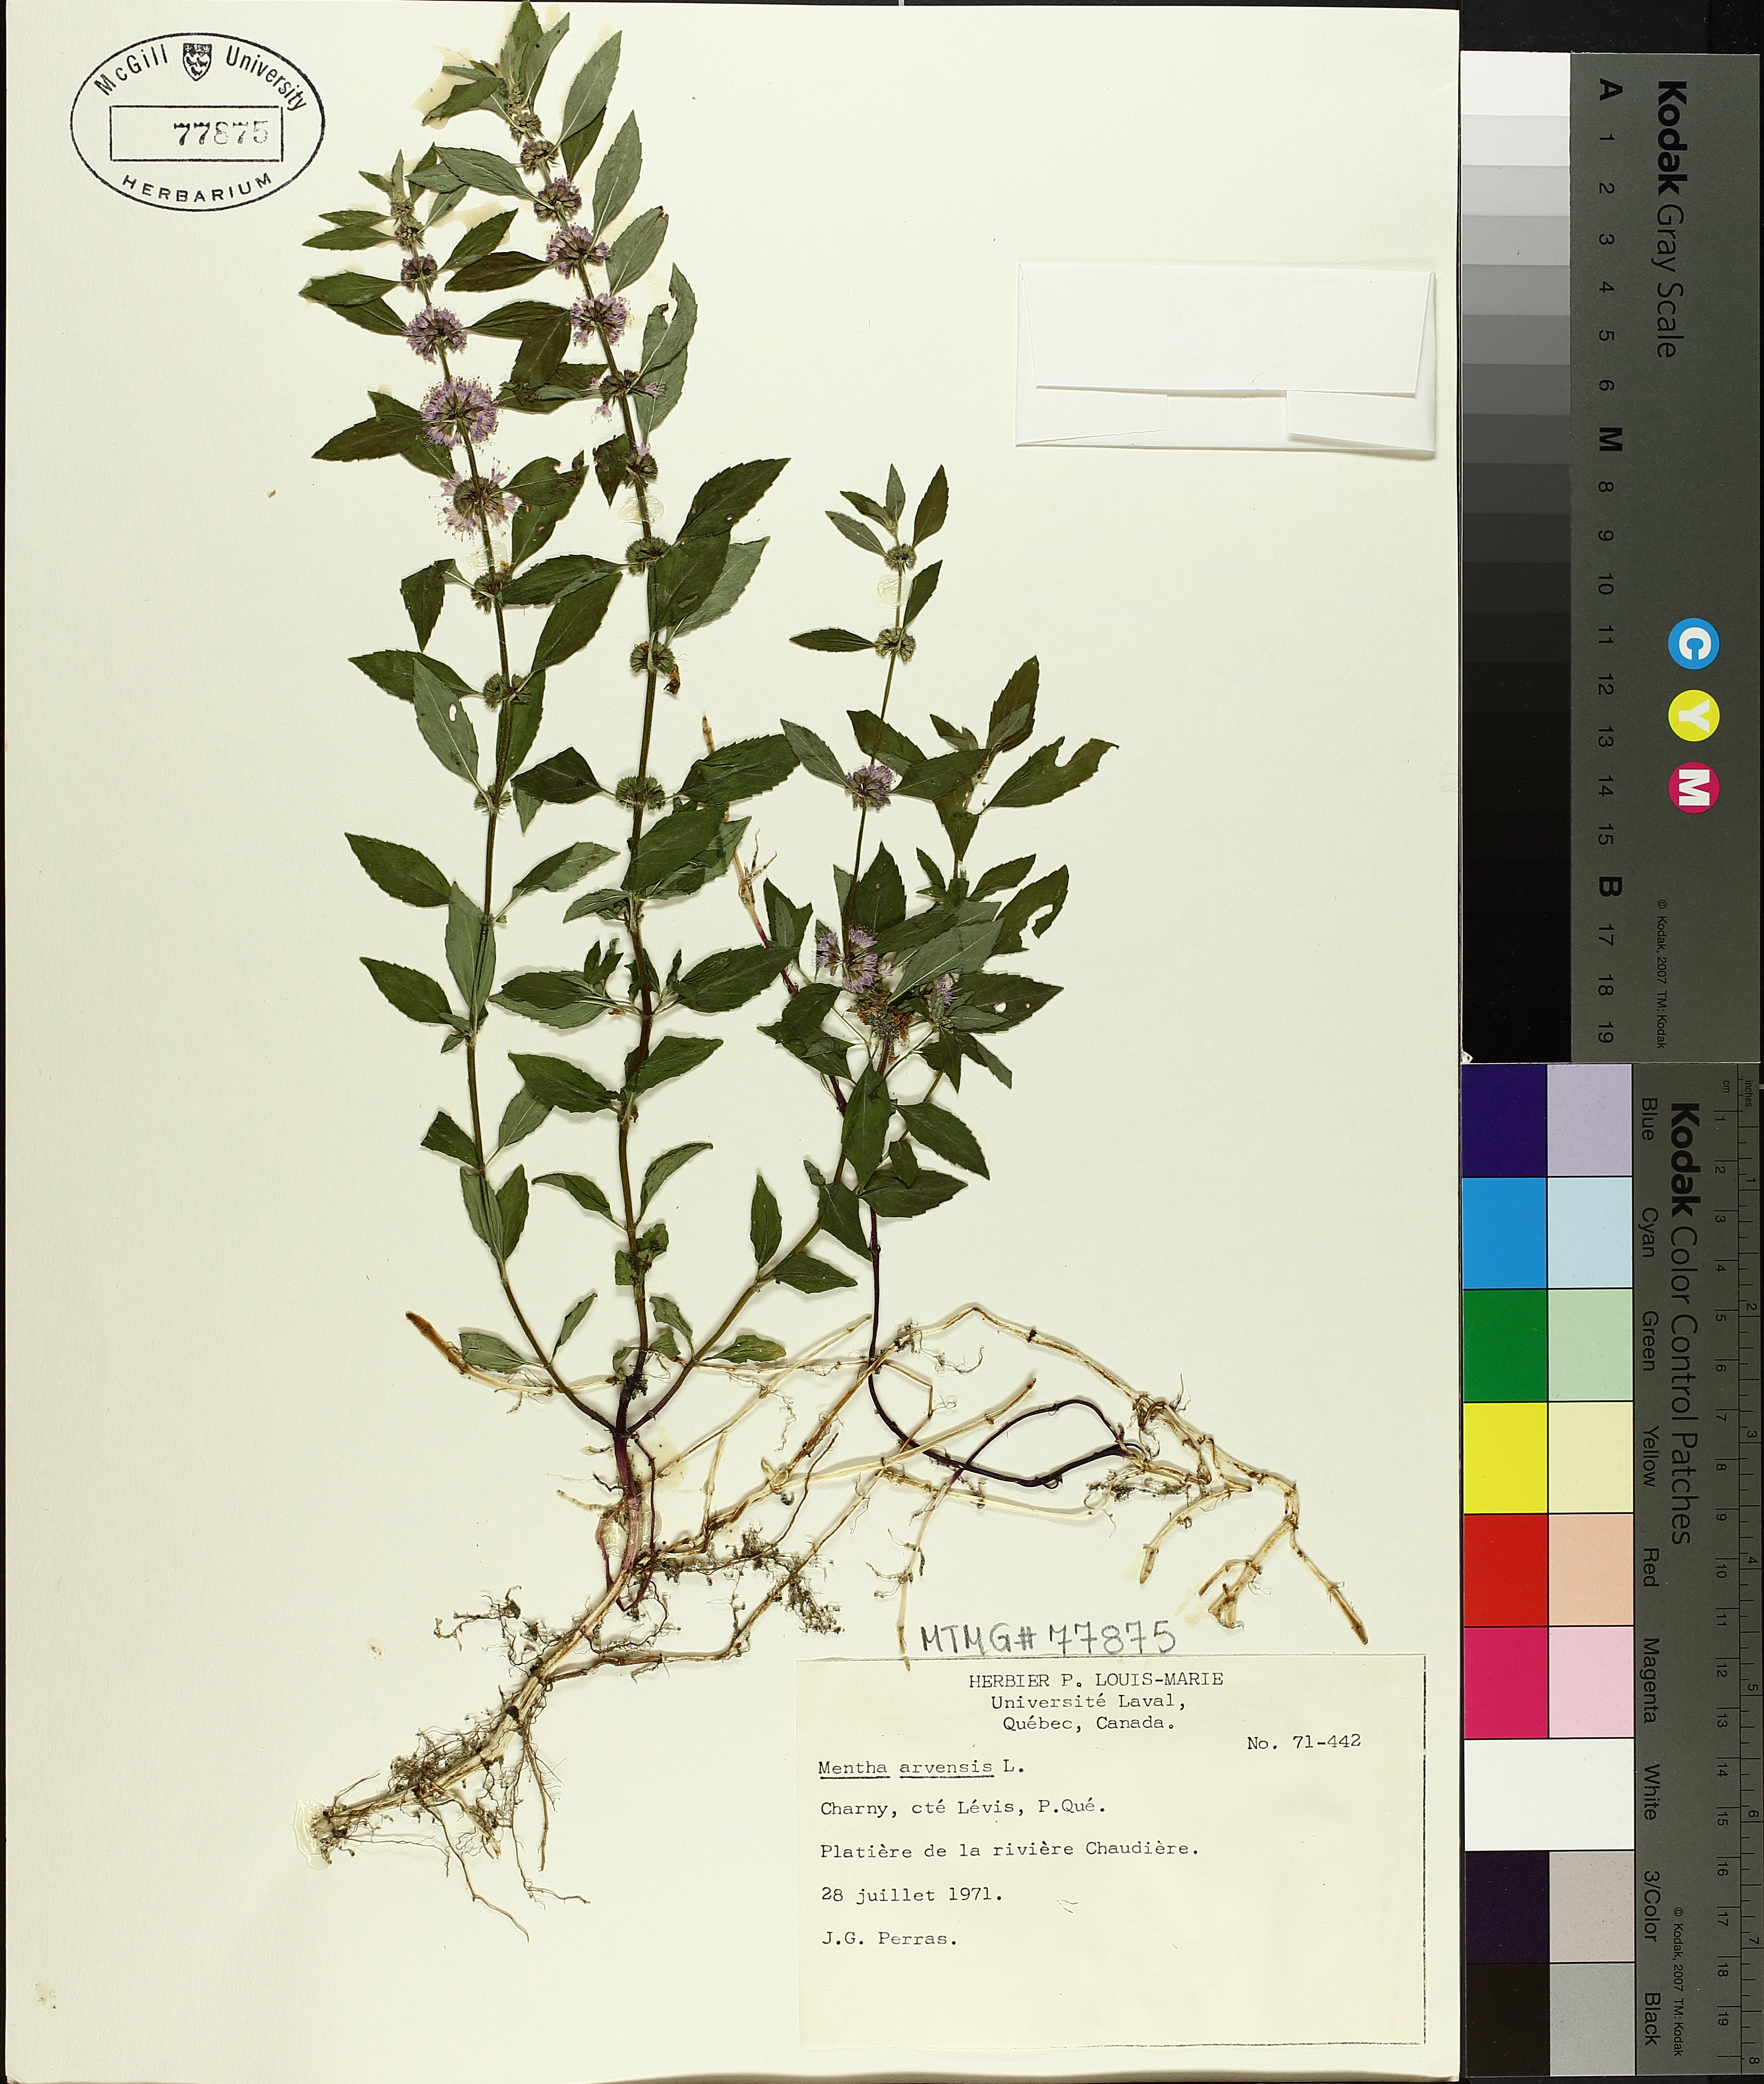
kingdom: Plantae
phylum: Tracheophyta
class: Magnoliopsida
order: Lamiales
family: Lamiaceae
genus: Mentha
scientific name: Mentha arvensis
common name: Corn mint
